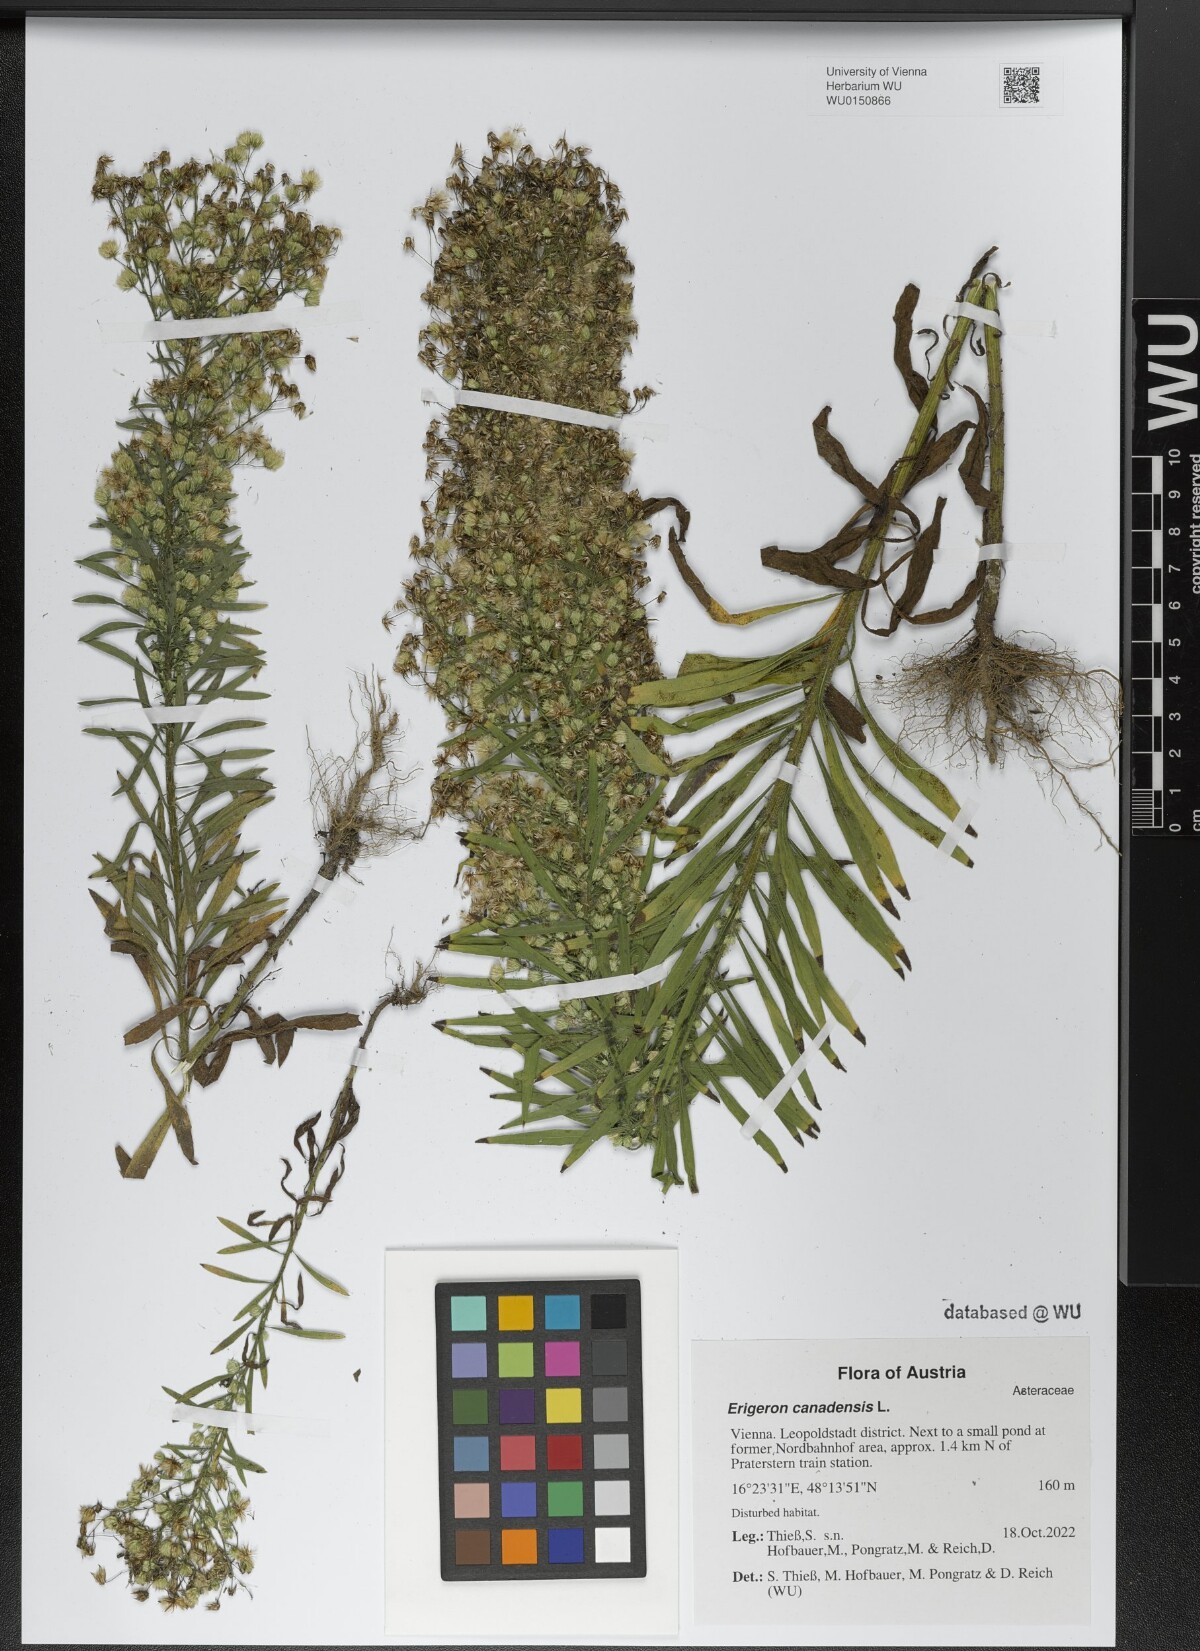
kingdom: Plantae
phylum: Tracheophyta
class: Magnoliopsida
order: Asterales
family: Asteraceae
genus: Erigeron
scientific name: Erigeron canadensis
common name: Canadian fleabane
